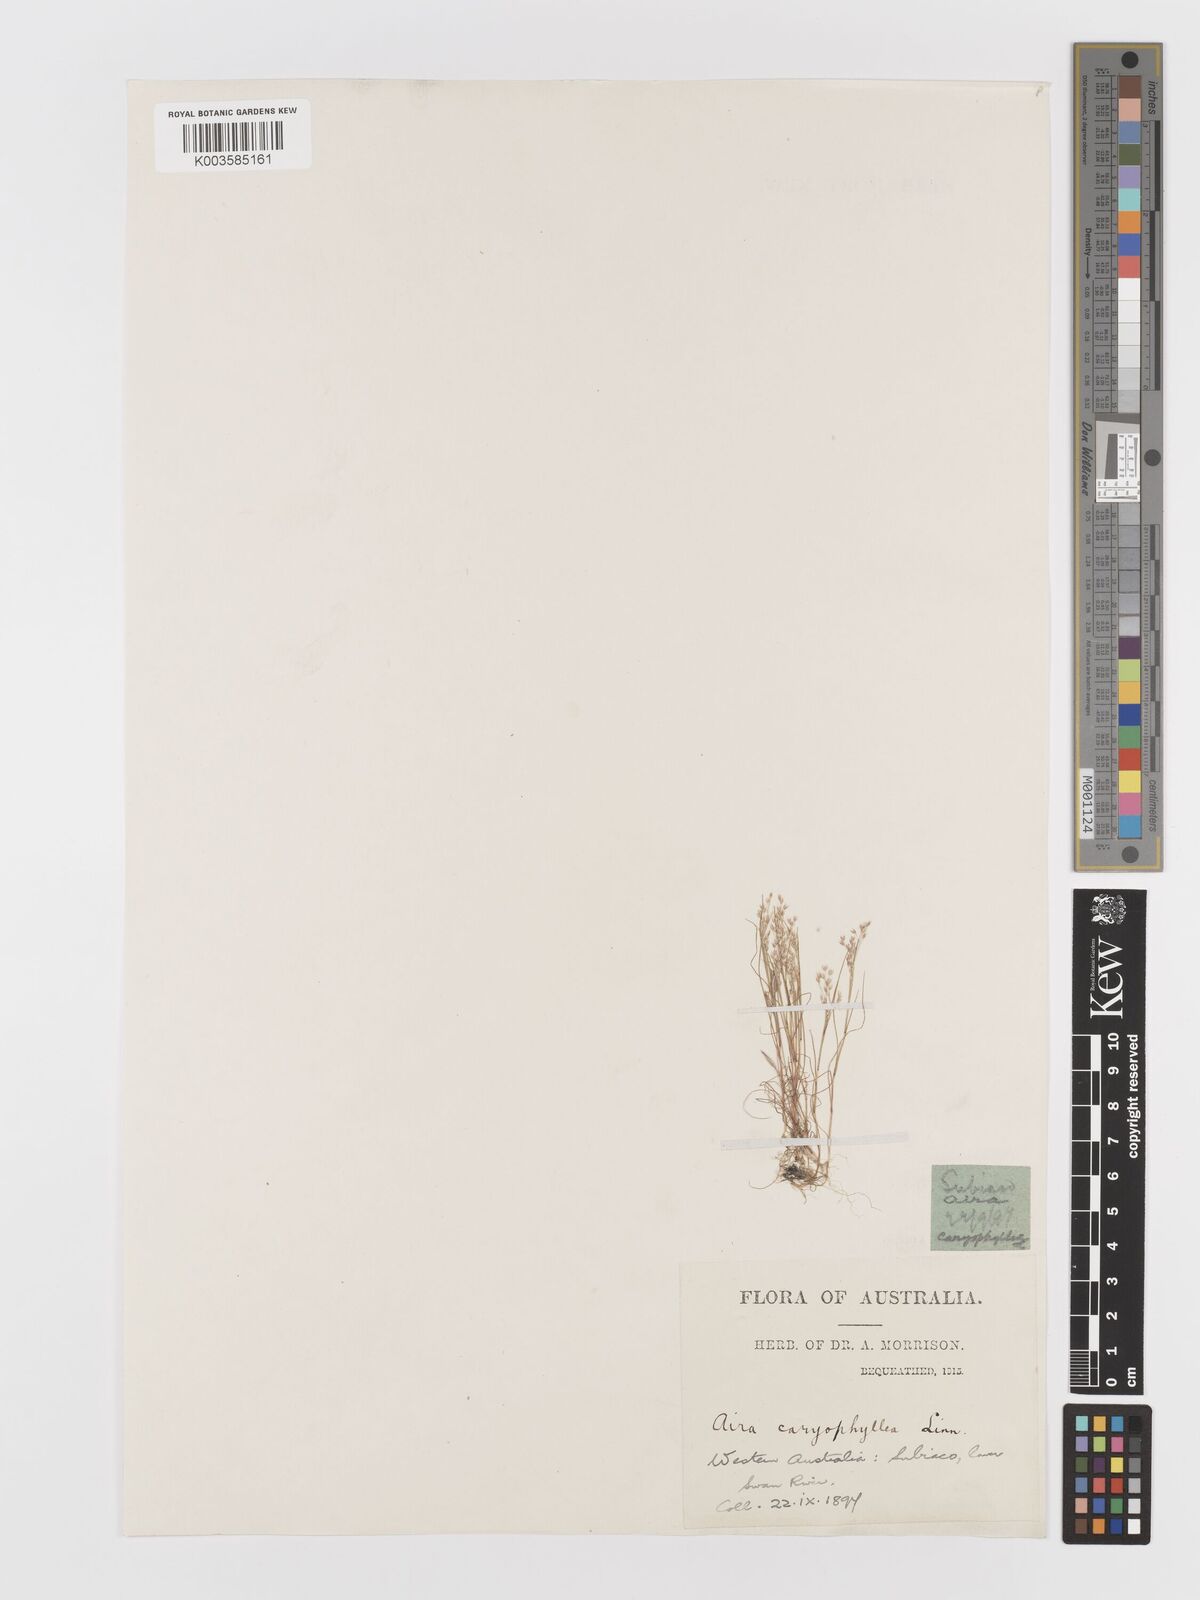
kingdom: Plantae
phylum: Tracheophyta
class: Liliopsida
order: Poales
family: Poaceae
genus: Aira
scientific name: Aira elegans
